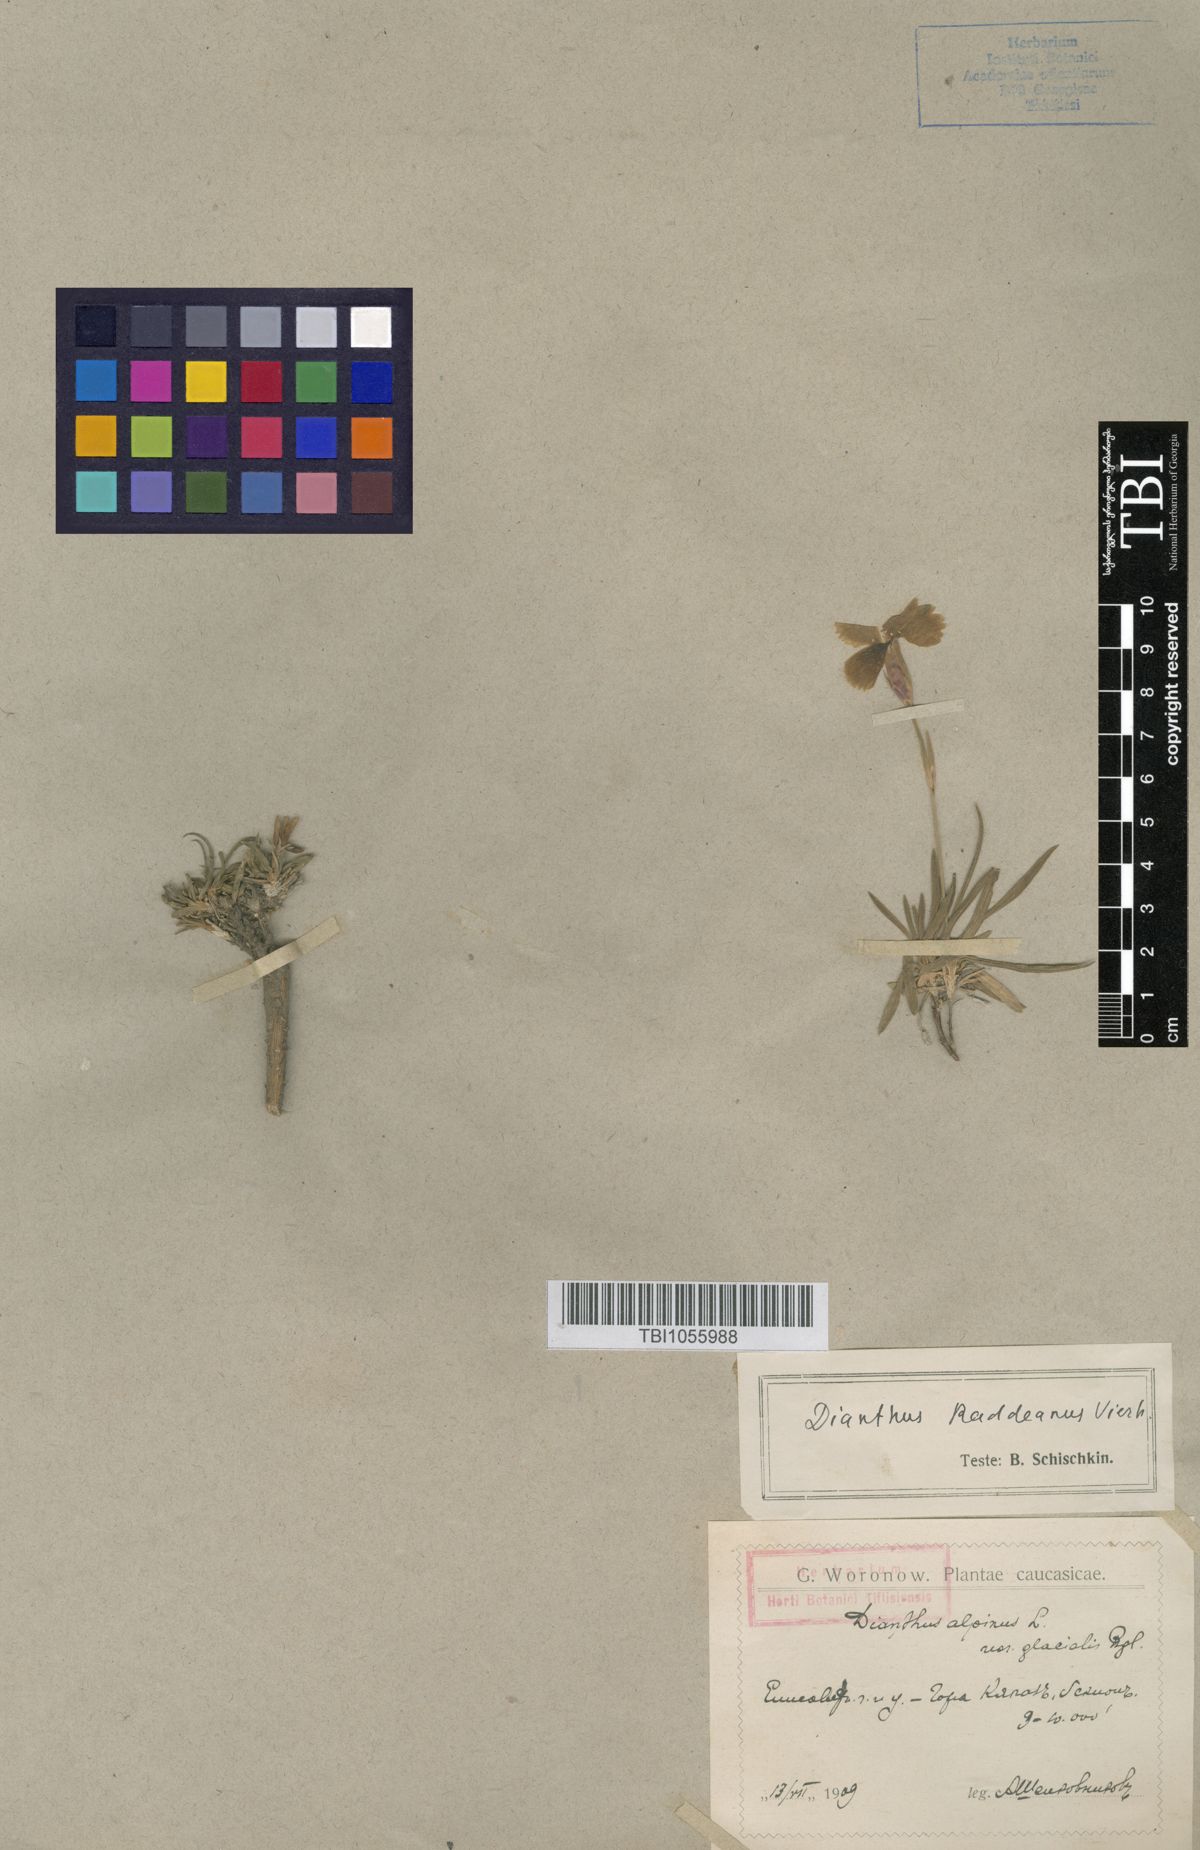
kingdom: Plantae
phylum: Tracheophyta
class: Magnoliopsida
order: Caryophyllales
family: Caryophyllaceae
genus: Dianthus
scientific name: Dianthus raddeanus
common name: Radde's pink
